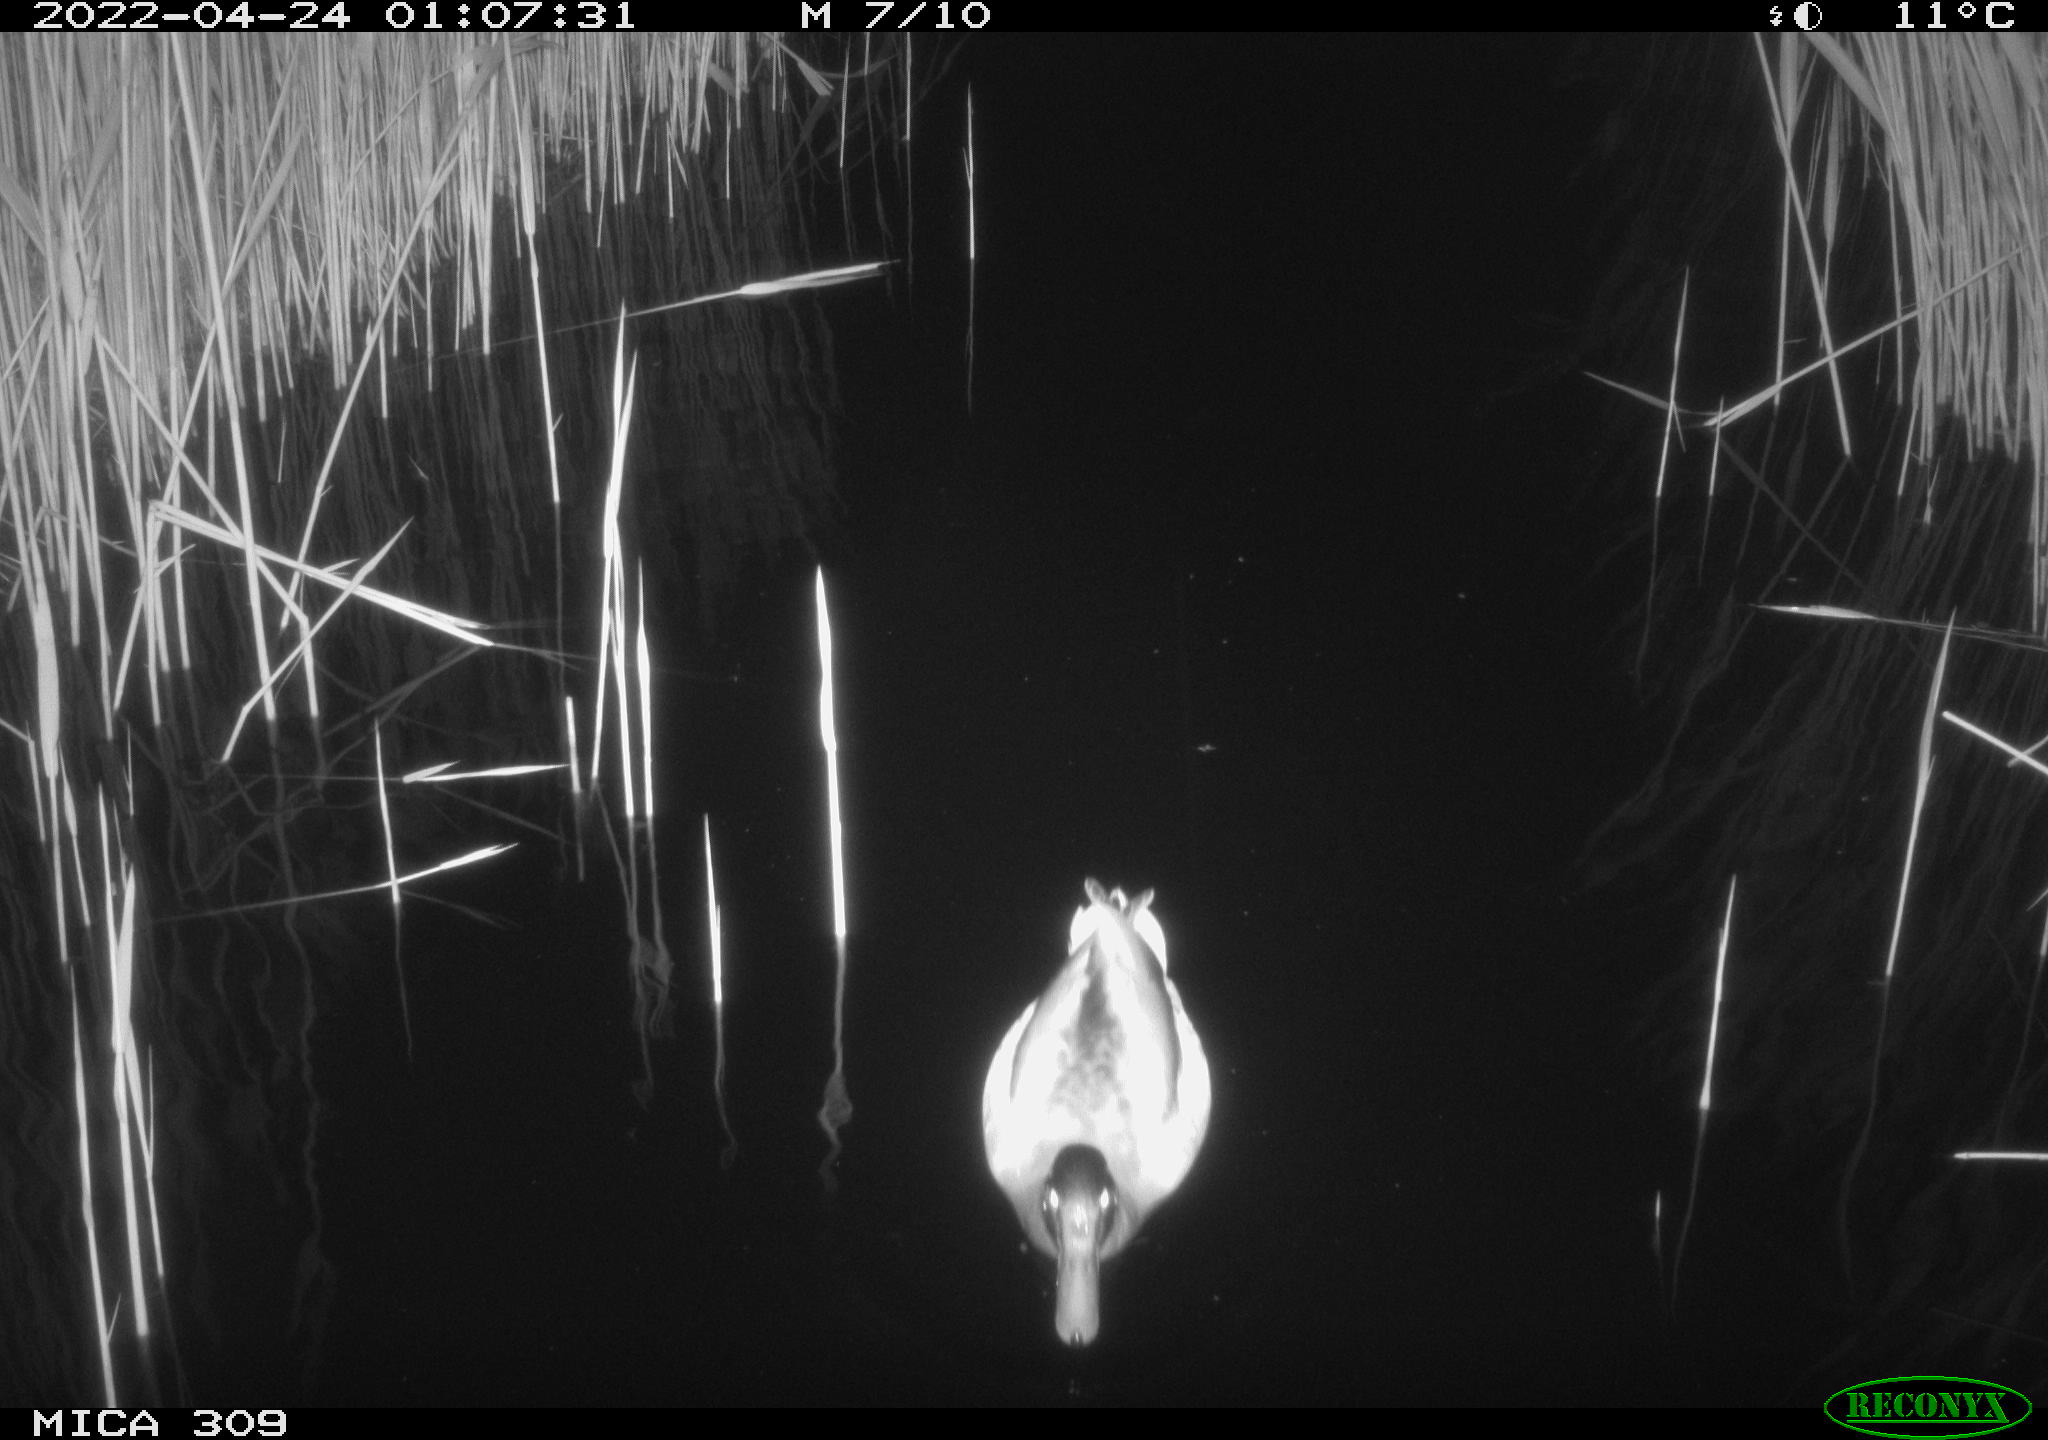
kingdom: Animalia
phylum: Chordata
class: Aves
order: Anseriformes
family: Anatidae
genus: Anas
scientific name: Anas platyrhynchos
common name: Mallard
